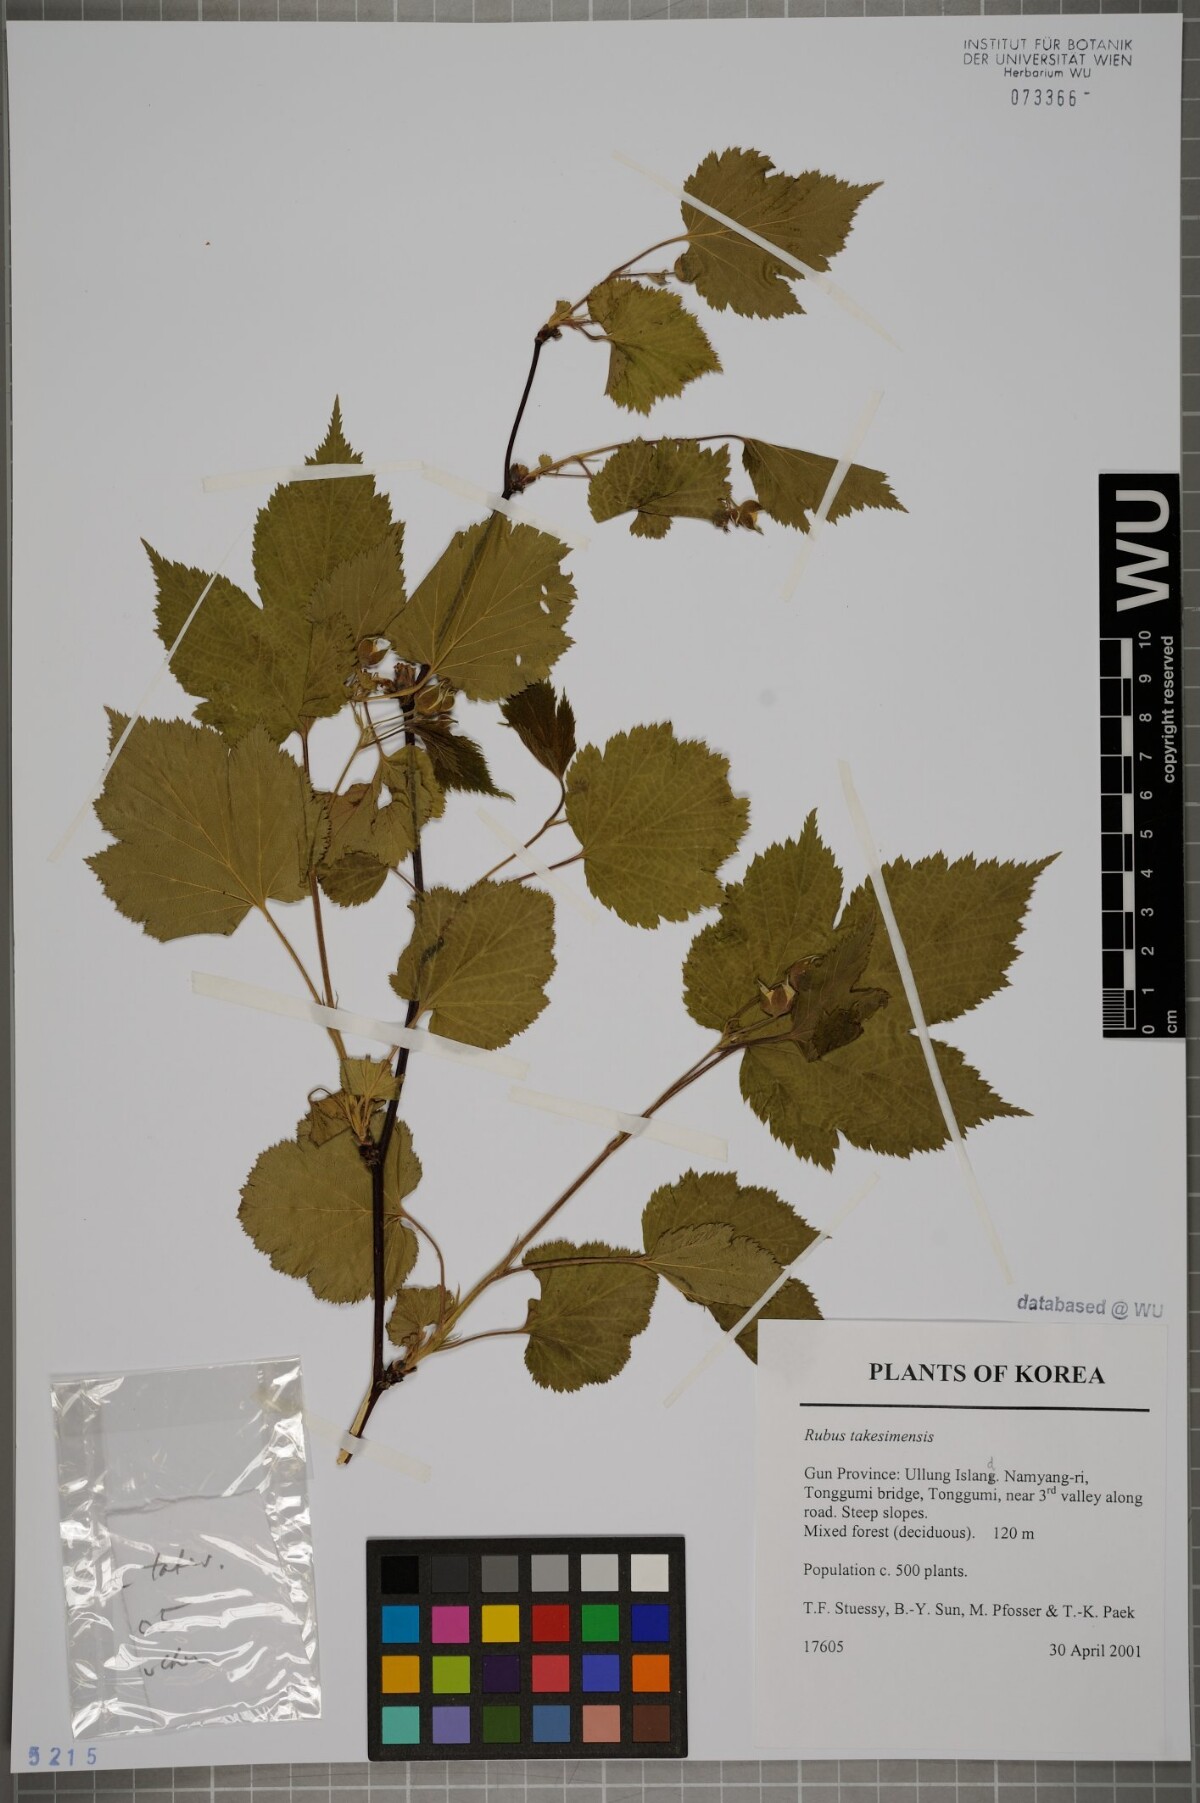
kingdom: Plantae
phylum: Tracheophyta
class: Magnoliopsida
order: Rosales
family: Rosaceae
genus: Rubus
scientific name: Rubus crataegifolius
